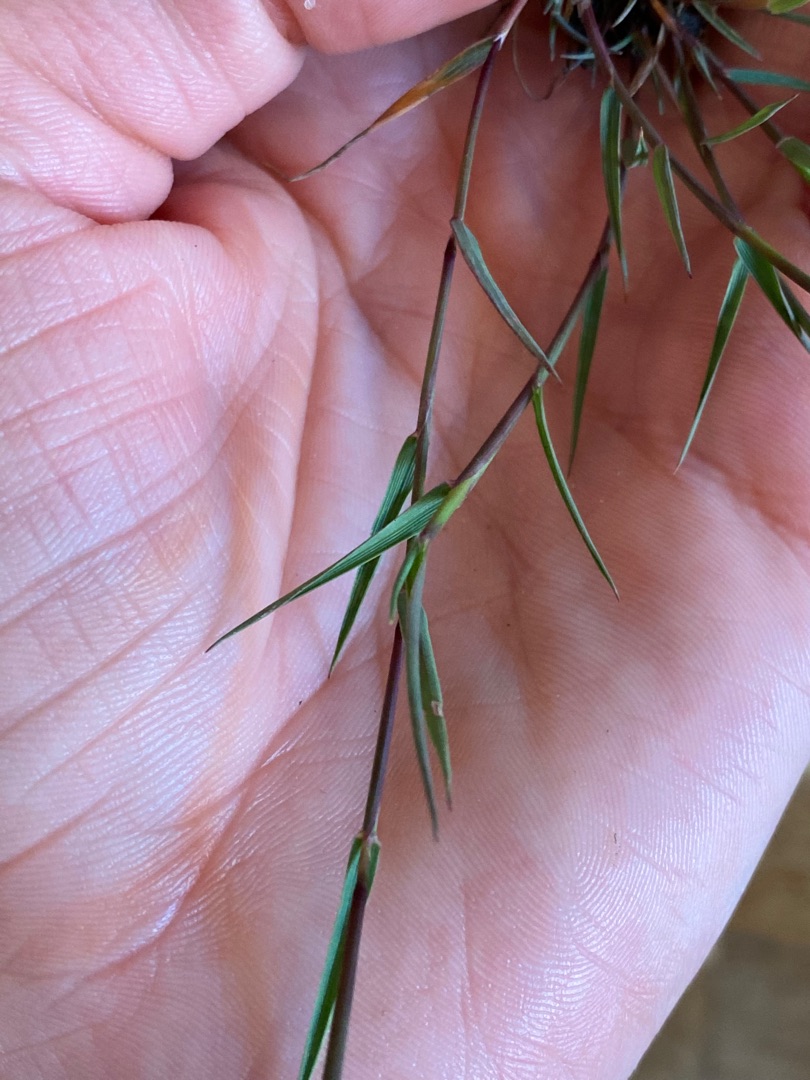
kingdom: Plantae
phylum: Tracheophyta
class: Liliopsida
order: Poales
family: Poaceae
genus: Agrostis
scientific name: Agrostis stolonifera
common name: Kryb-hvene
